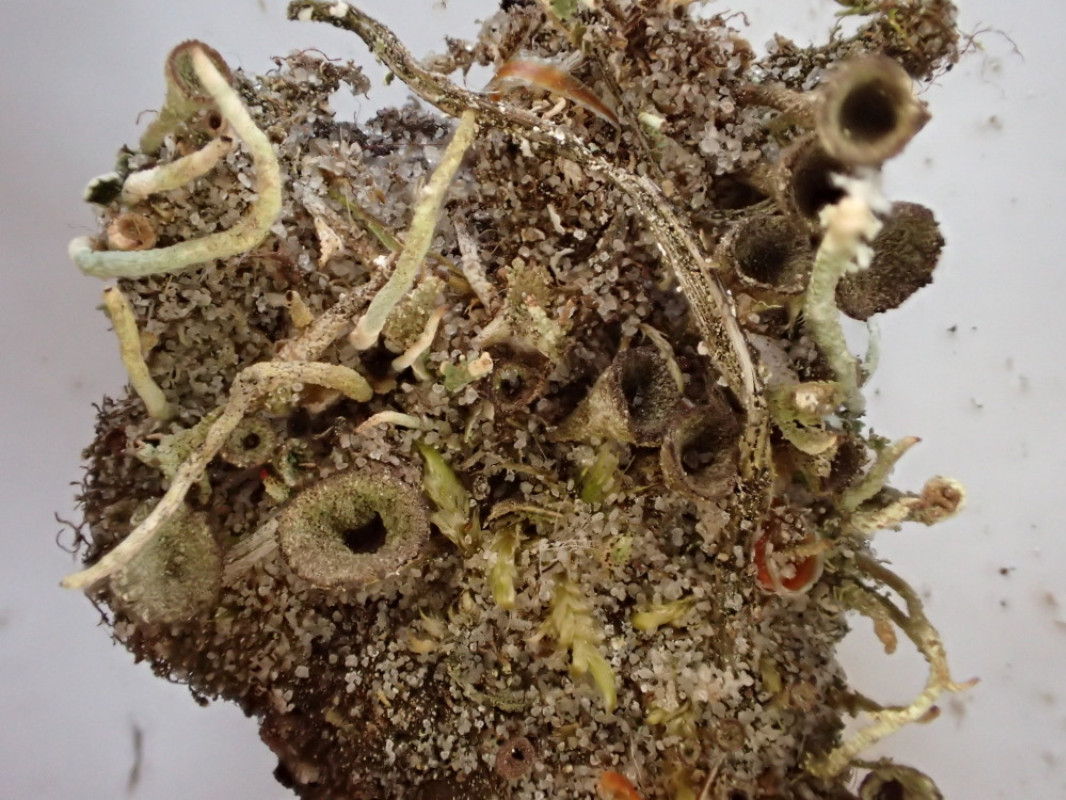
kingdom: Fungi
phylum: Ascomycota
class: Lecanoromycetes
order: Lecanorales
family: Cladoniaceae
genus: Cladonia
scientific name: Cladonia merochlorophaea
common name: mørk bægerlav
